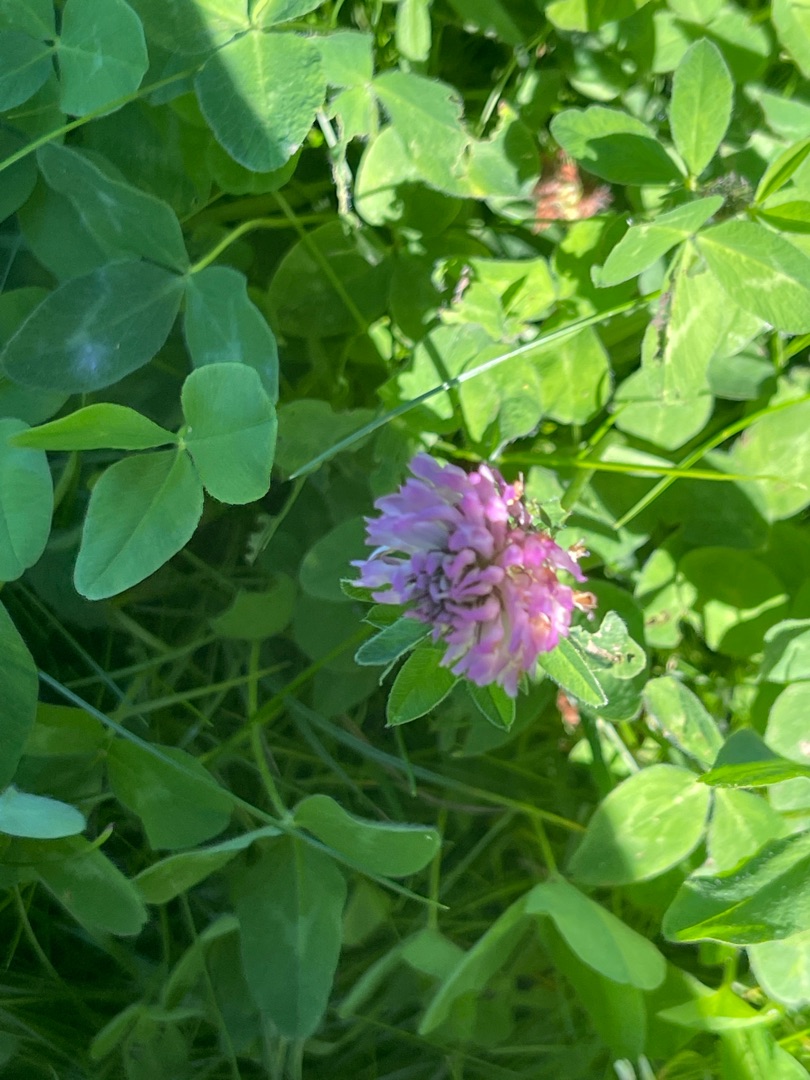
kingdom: Plantae
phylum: Tracheophyta
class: Magnoliopsida
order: Fabales
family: Fabaceae
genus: Trifolium
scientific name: Trifolium pratense
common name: Rød-kløver
